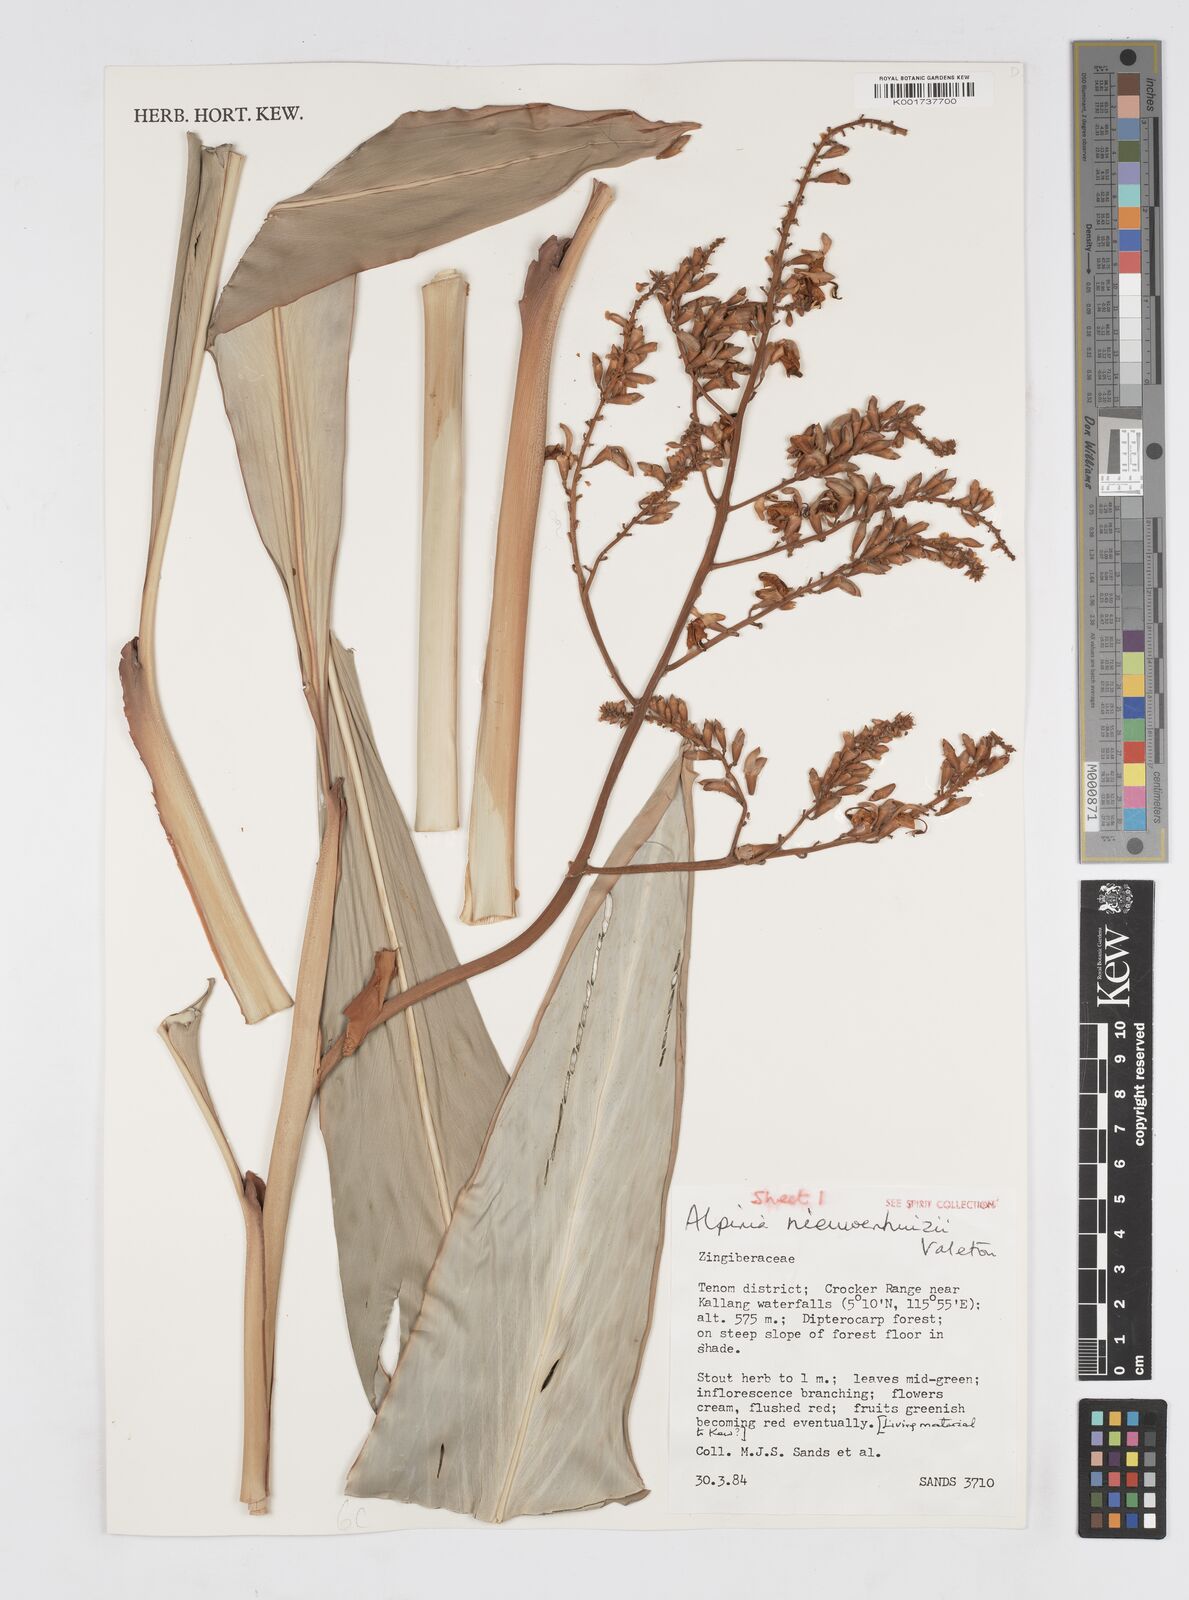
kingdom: Plantae
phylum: Tracheophyta
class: Liliopsida
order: Zingiberales
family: Zingiberaceae
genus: Alpinia
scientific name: Alpinia nieuwenhuizii
